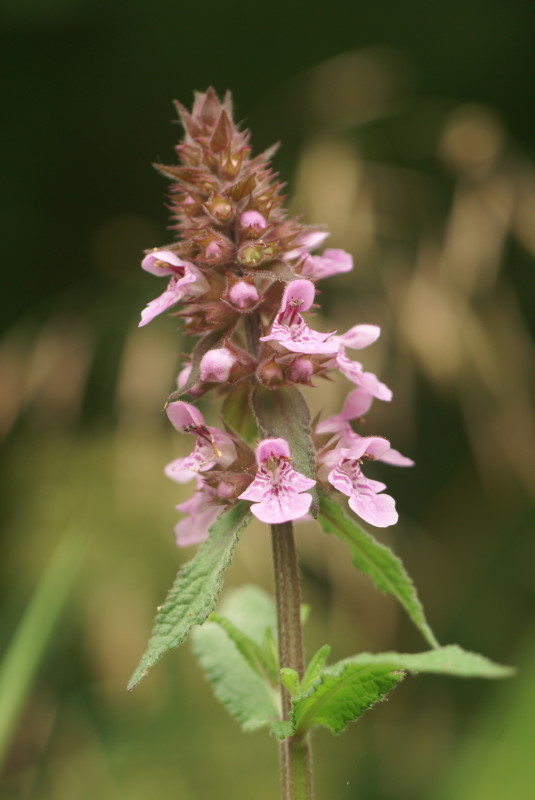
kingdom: Plantae
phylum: Tracheophyta
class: Magnoliopsida
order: Lamiales
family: Lamiaceae
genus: Betonica
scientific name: Betonica officinalis
